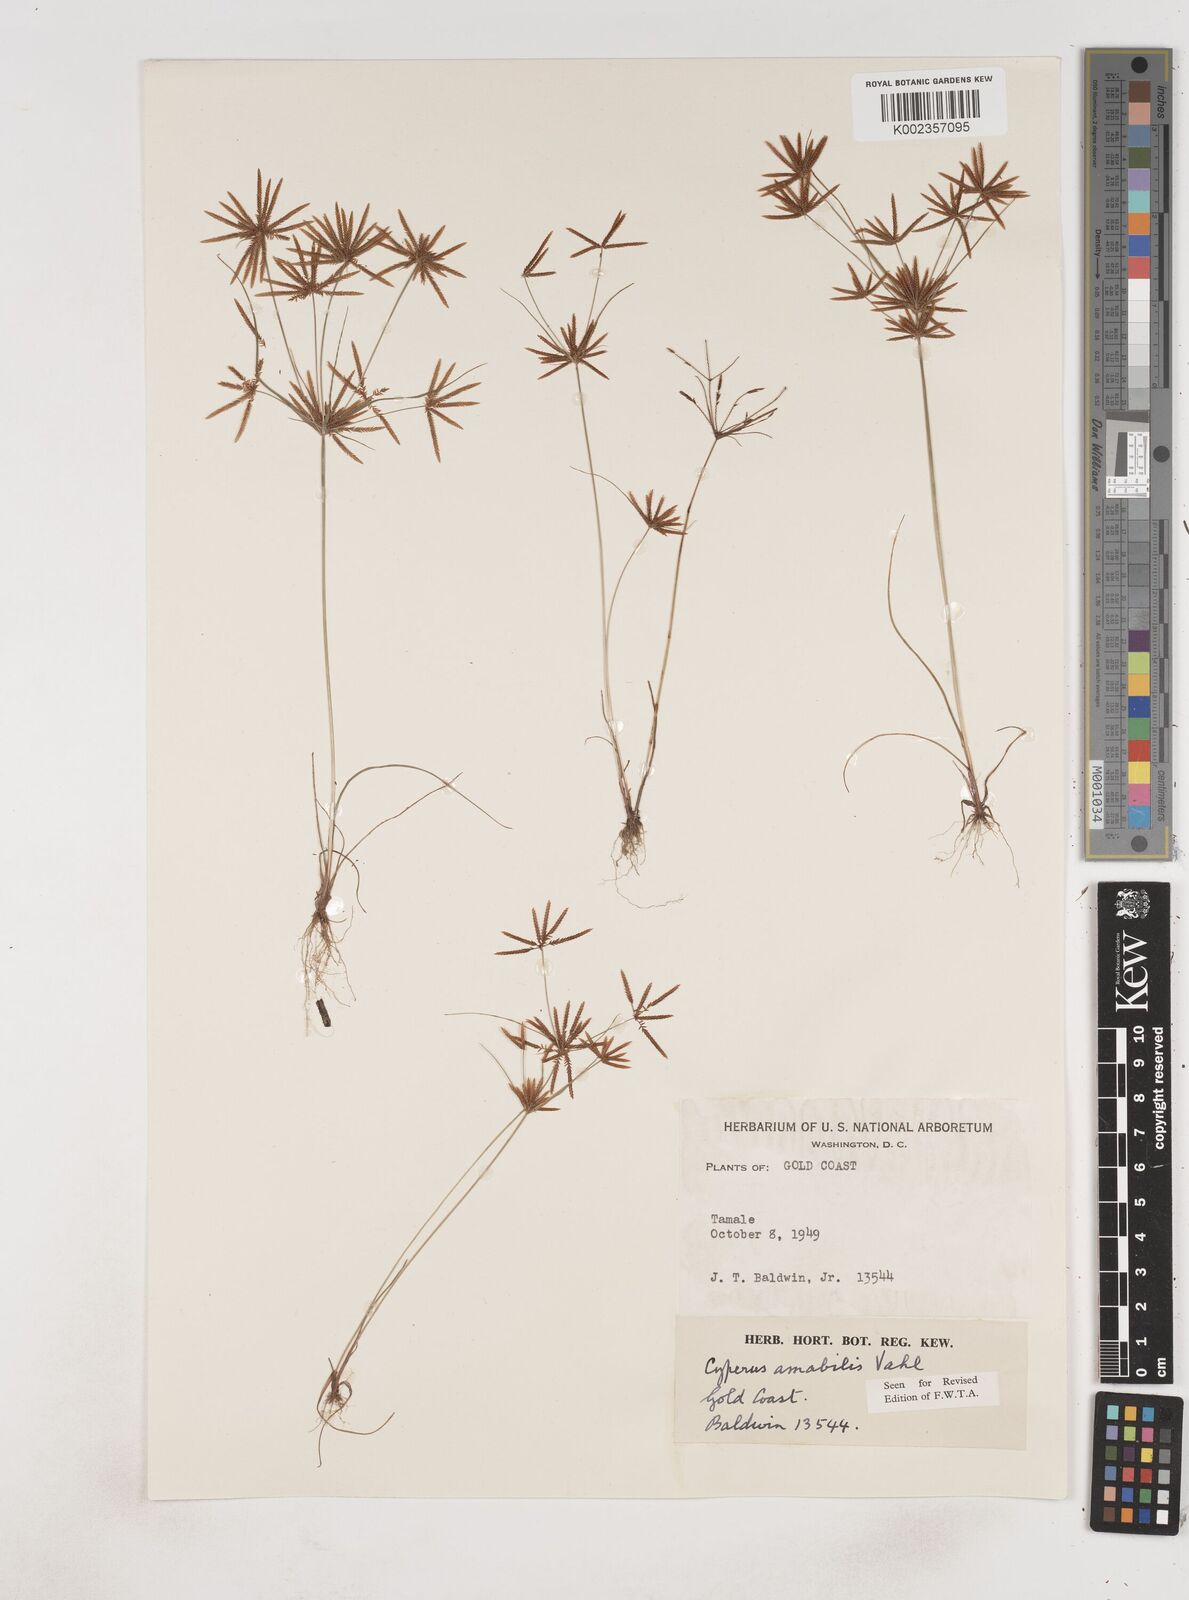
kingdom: Plantae
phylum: Tracheophyta
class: Liliopsida
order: Poales
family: Cyperaceae
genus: Cyperus
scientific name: Cyperus amabilis
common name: Foothill flat sedge
